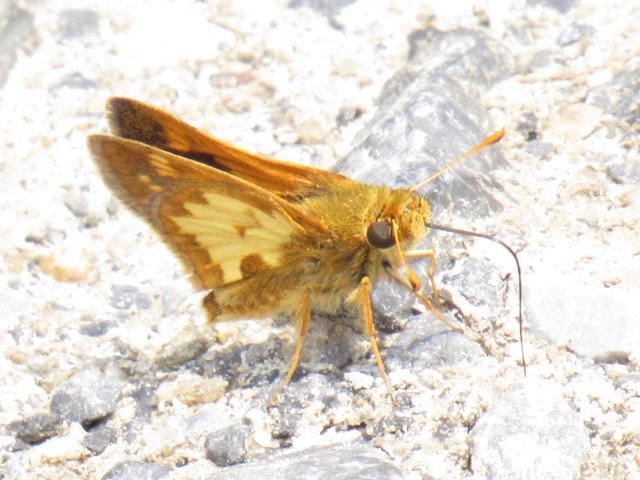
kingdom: Animalia
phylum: Arthropoda
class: Insecta
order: Lepidoptera
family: Hesperiidae
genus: Polites
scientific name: Polites coras
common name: Peck's Skipper
